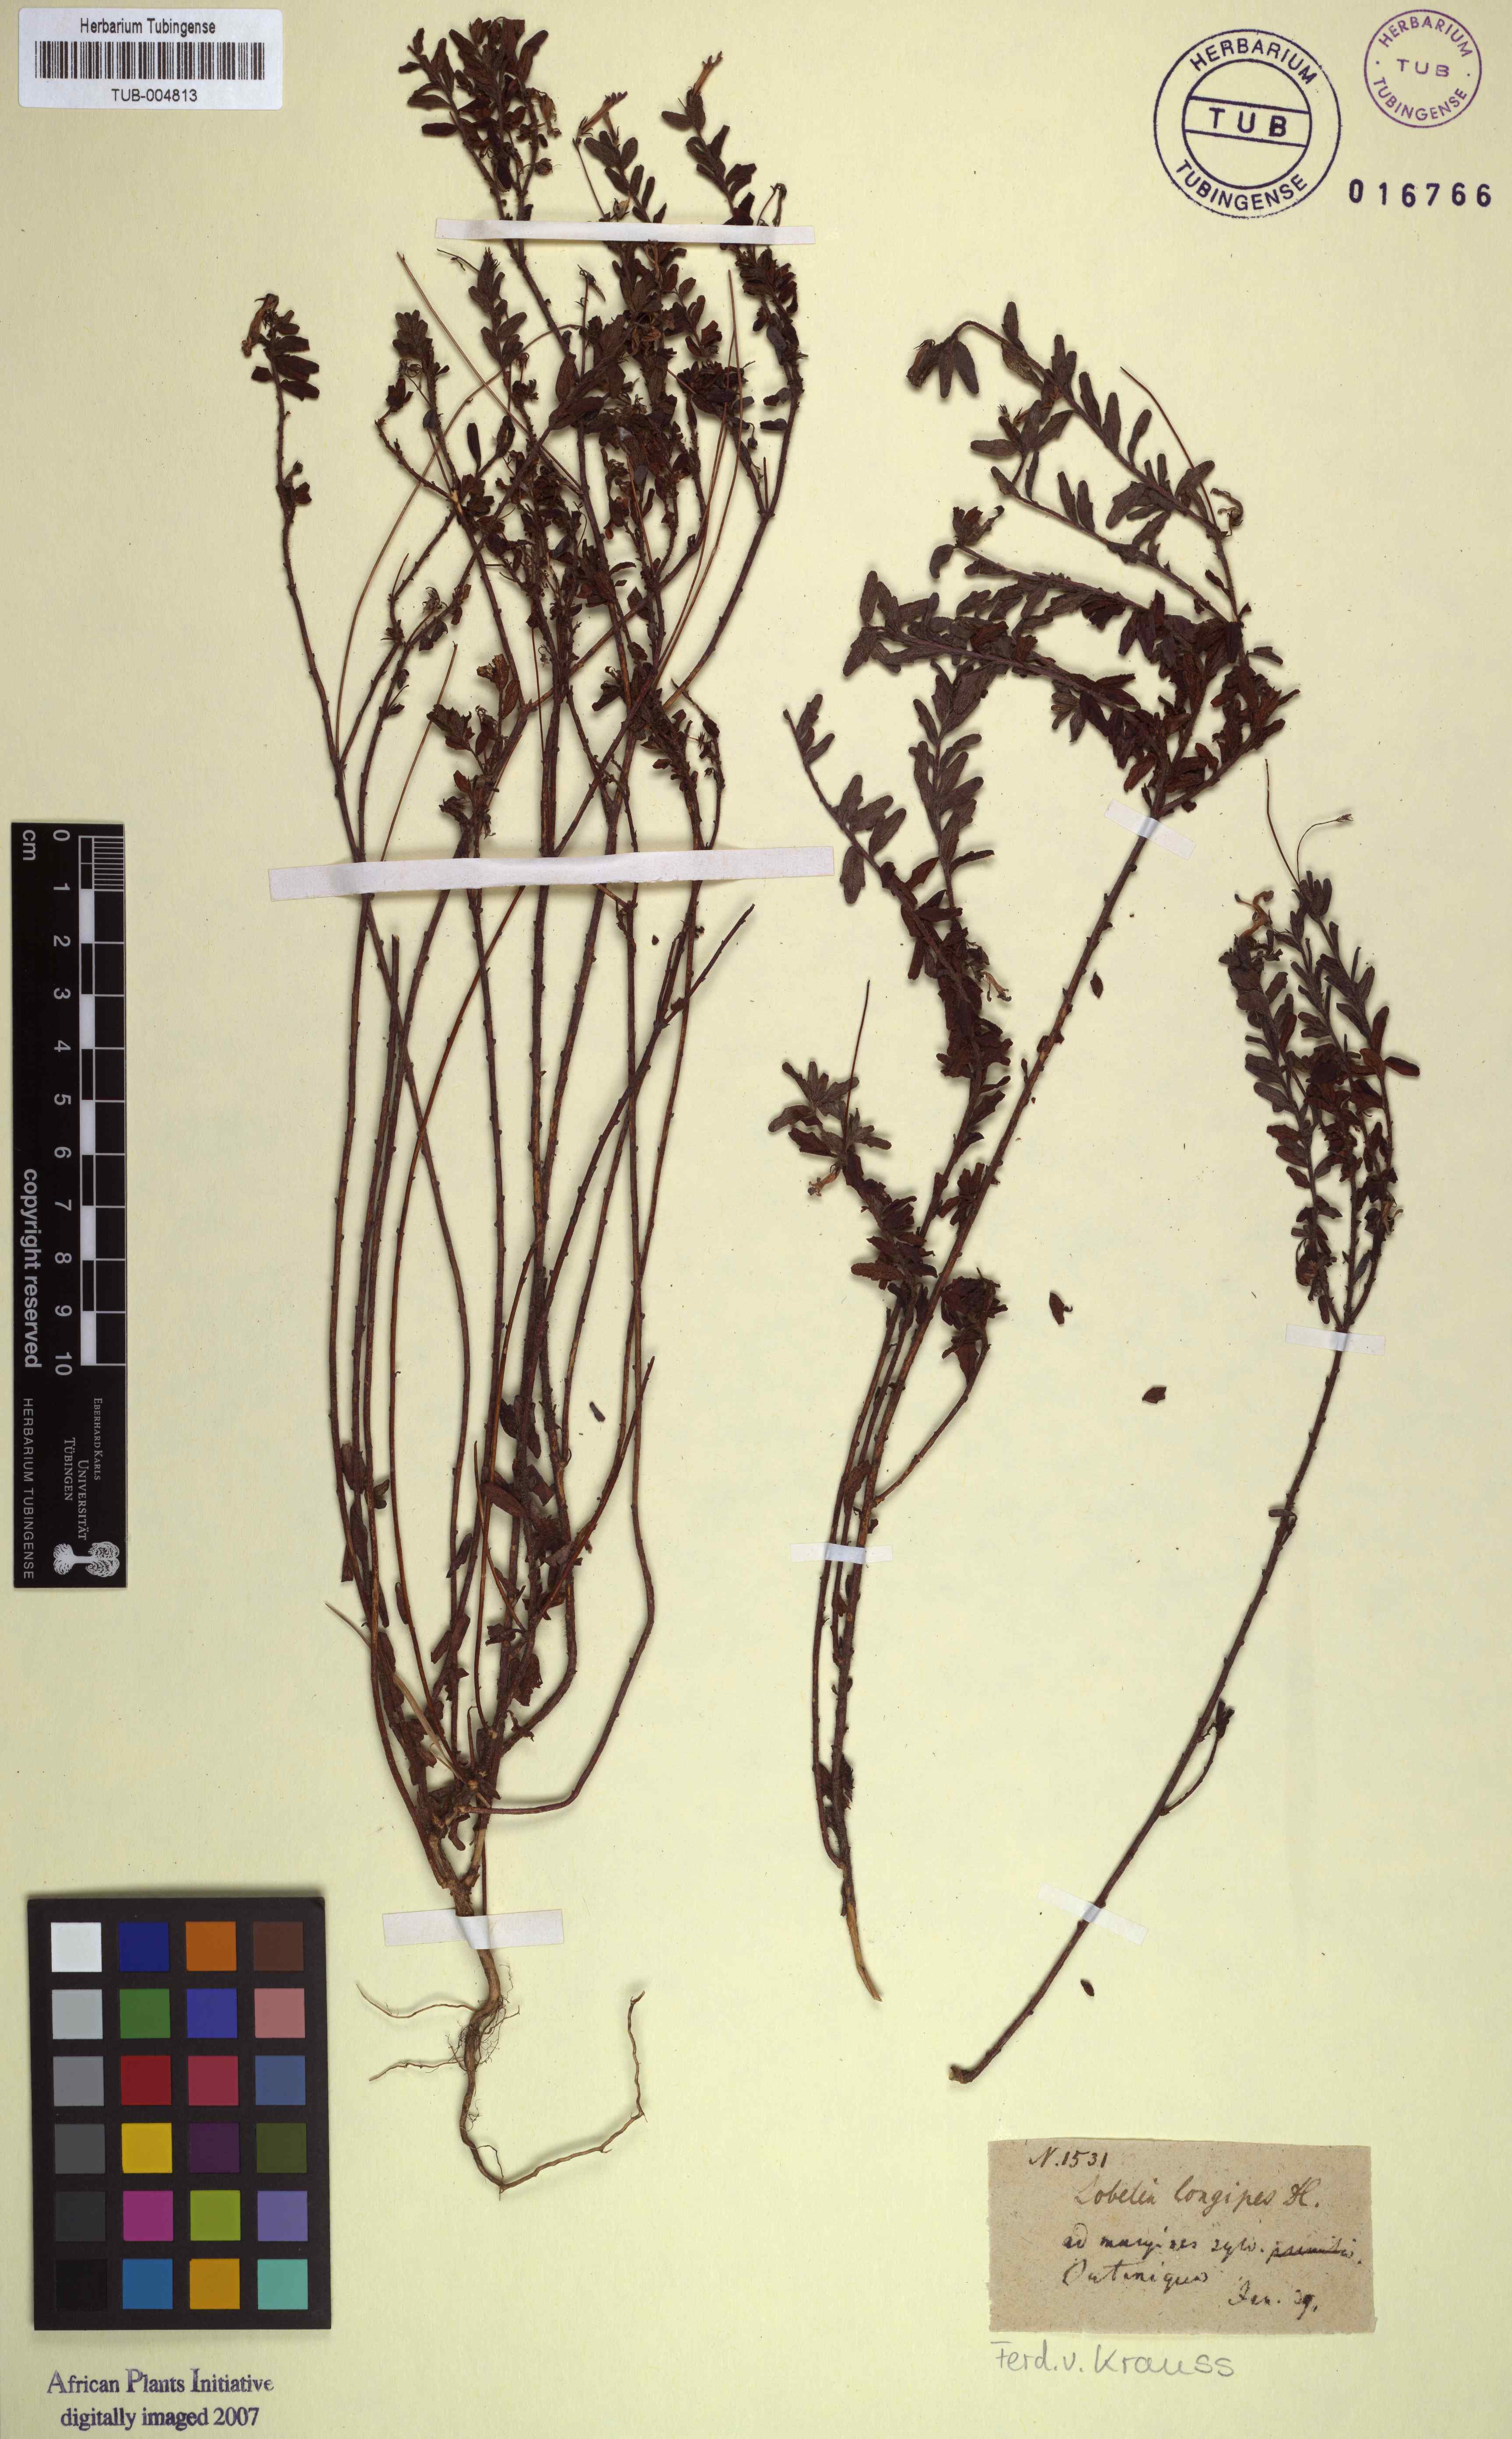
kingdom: Plantae
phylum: Tracheophyta
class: Magnoliopsida
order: Malvales
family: Thymelaeaceae
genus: Gnidia
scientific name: Gnidia hirsuta
